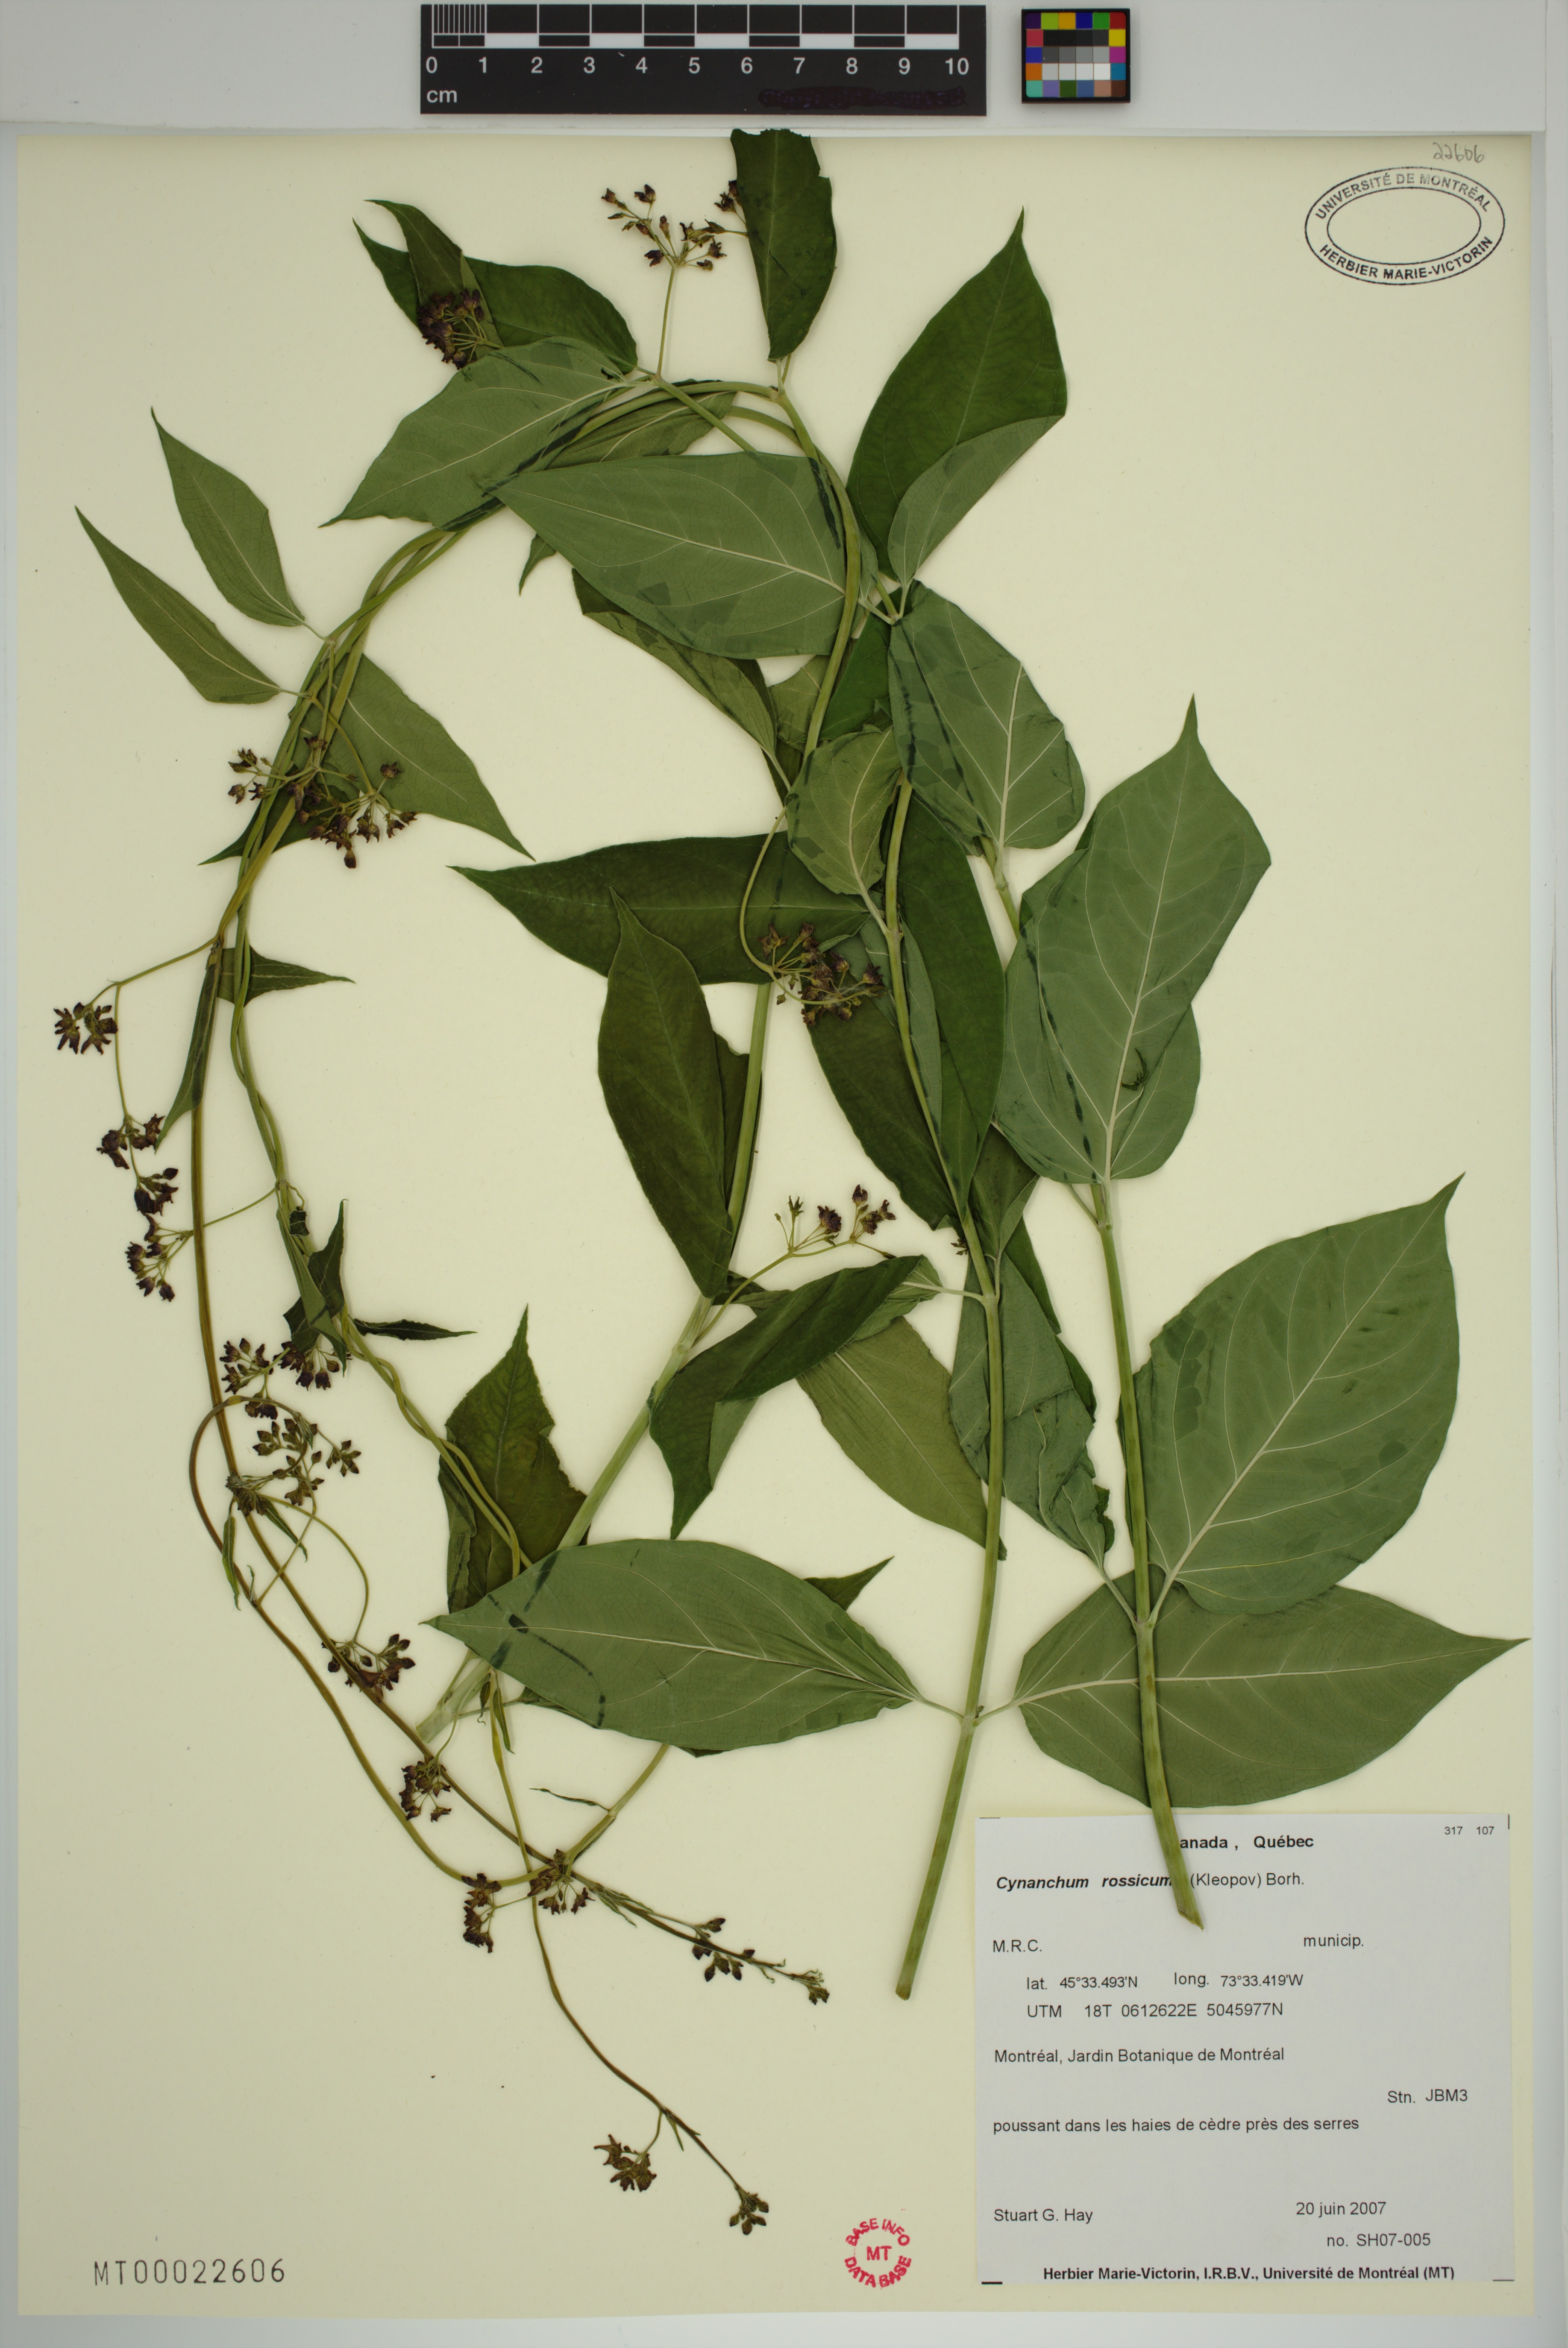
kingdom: Plantae
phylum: Tracheophyta
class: Magnoliopsida
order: Gentianales
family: Apocynaceae
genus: Vincetoxicum
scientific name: Vincetoxicum rossicum
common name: Dog-strangling vine
